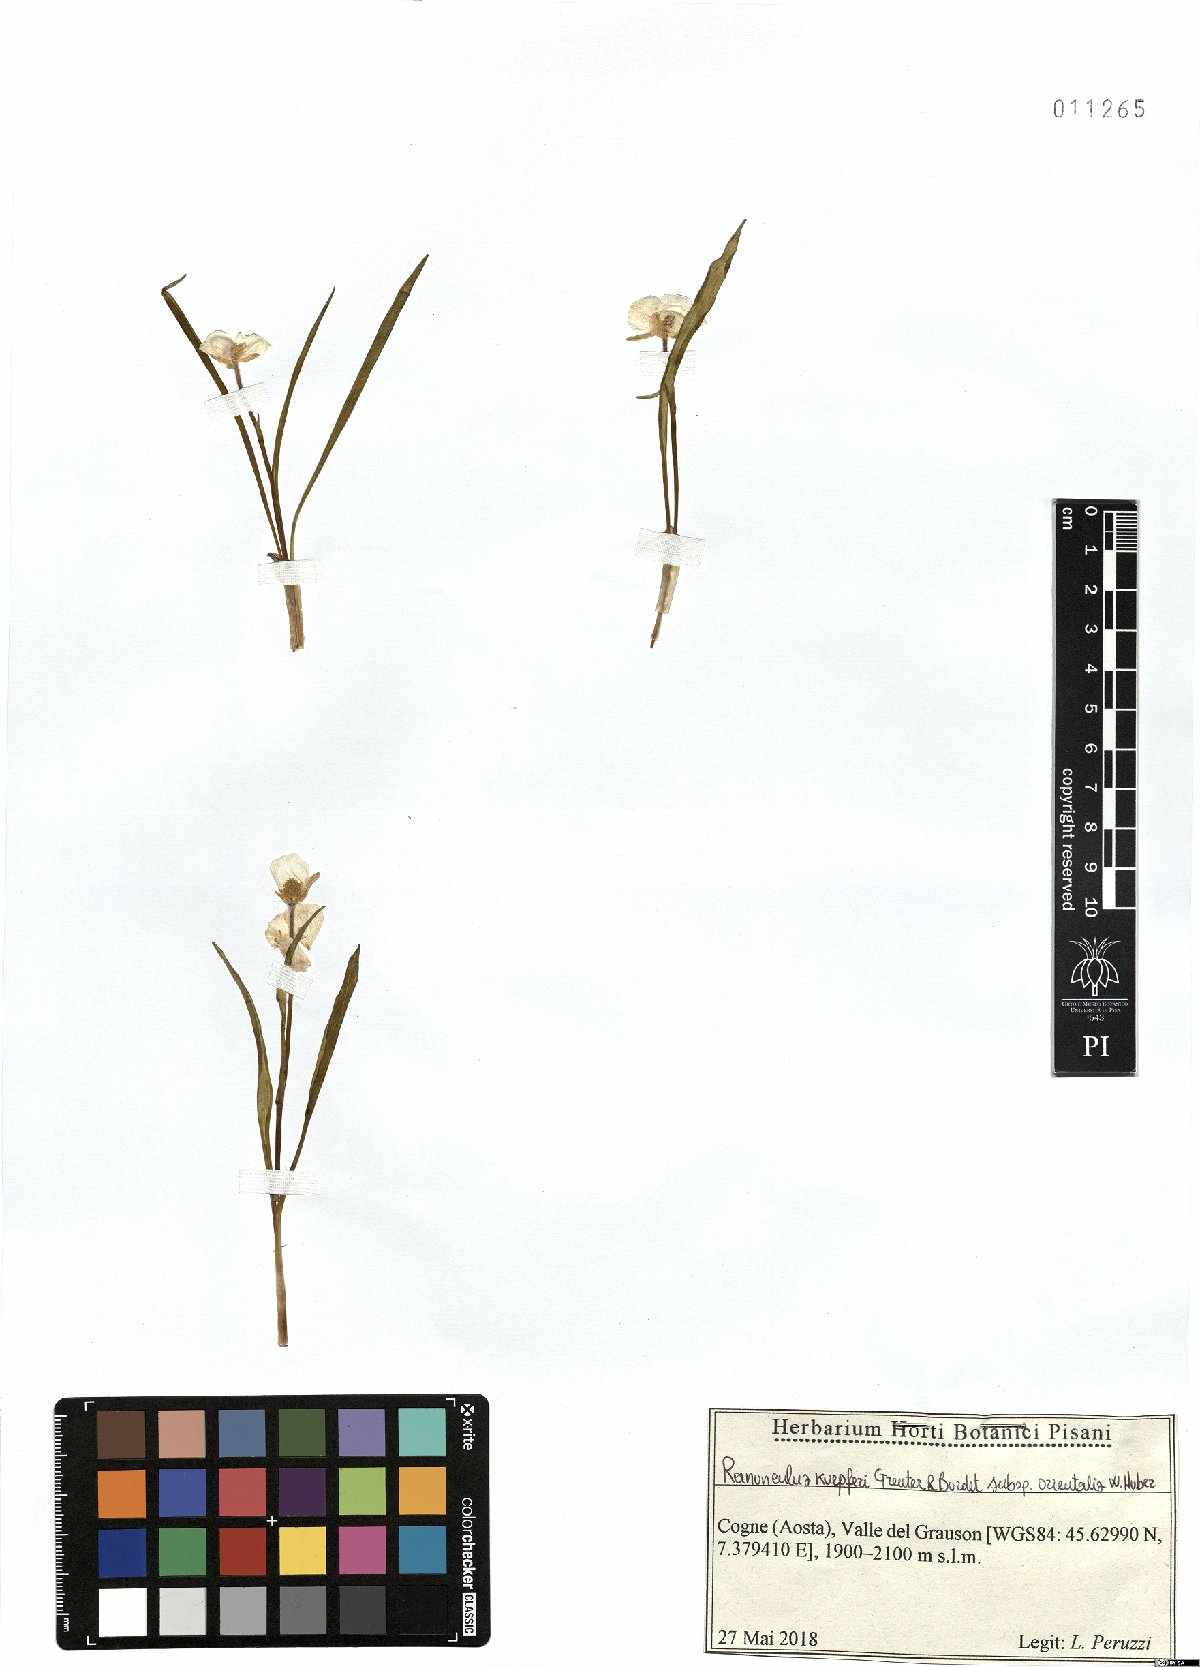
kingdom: Plantae
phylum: Tracheophyta
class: Magnoliopsida
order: Ranunculales
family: Ranunculaceae
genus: Ranunculus
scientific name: Ranunculus kuepferi
